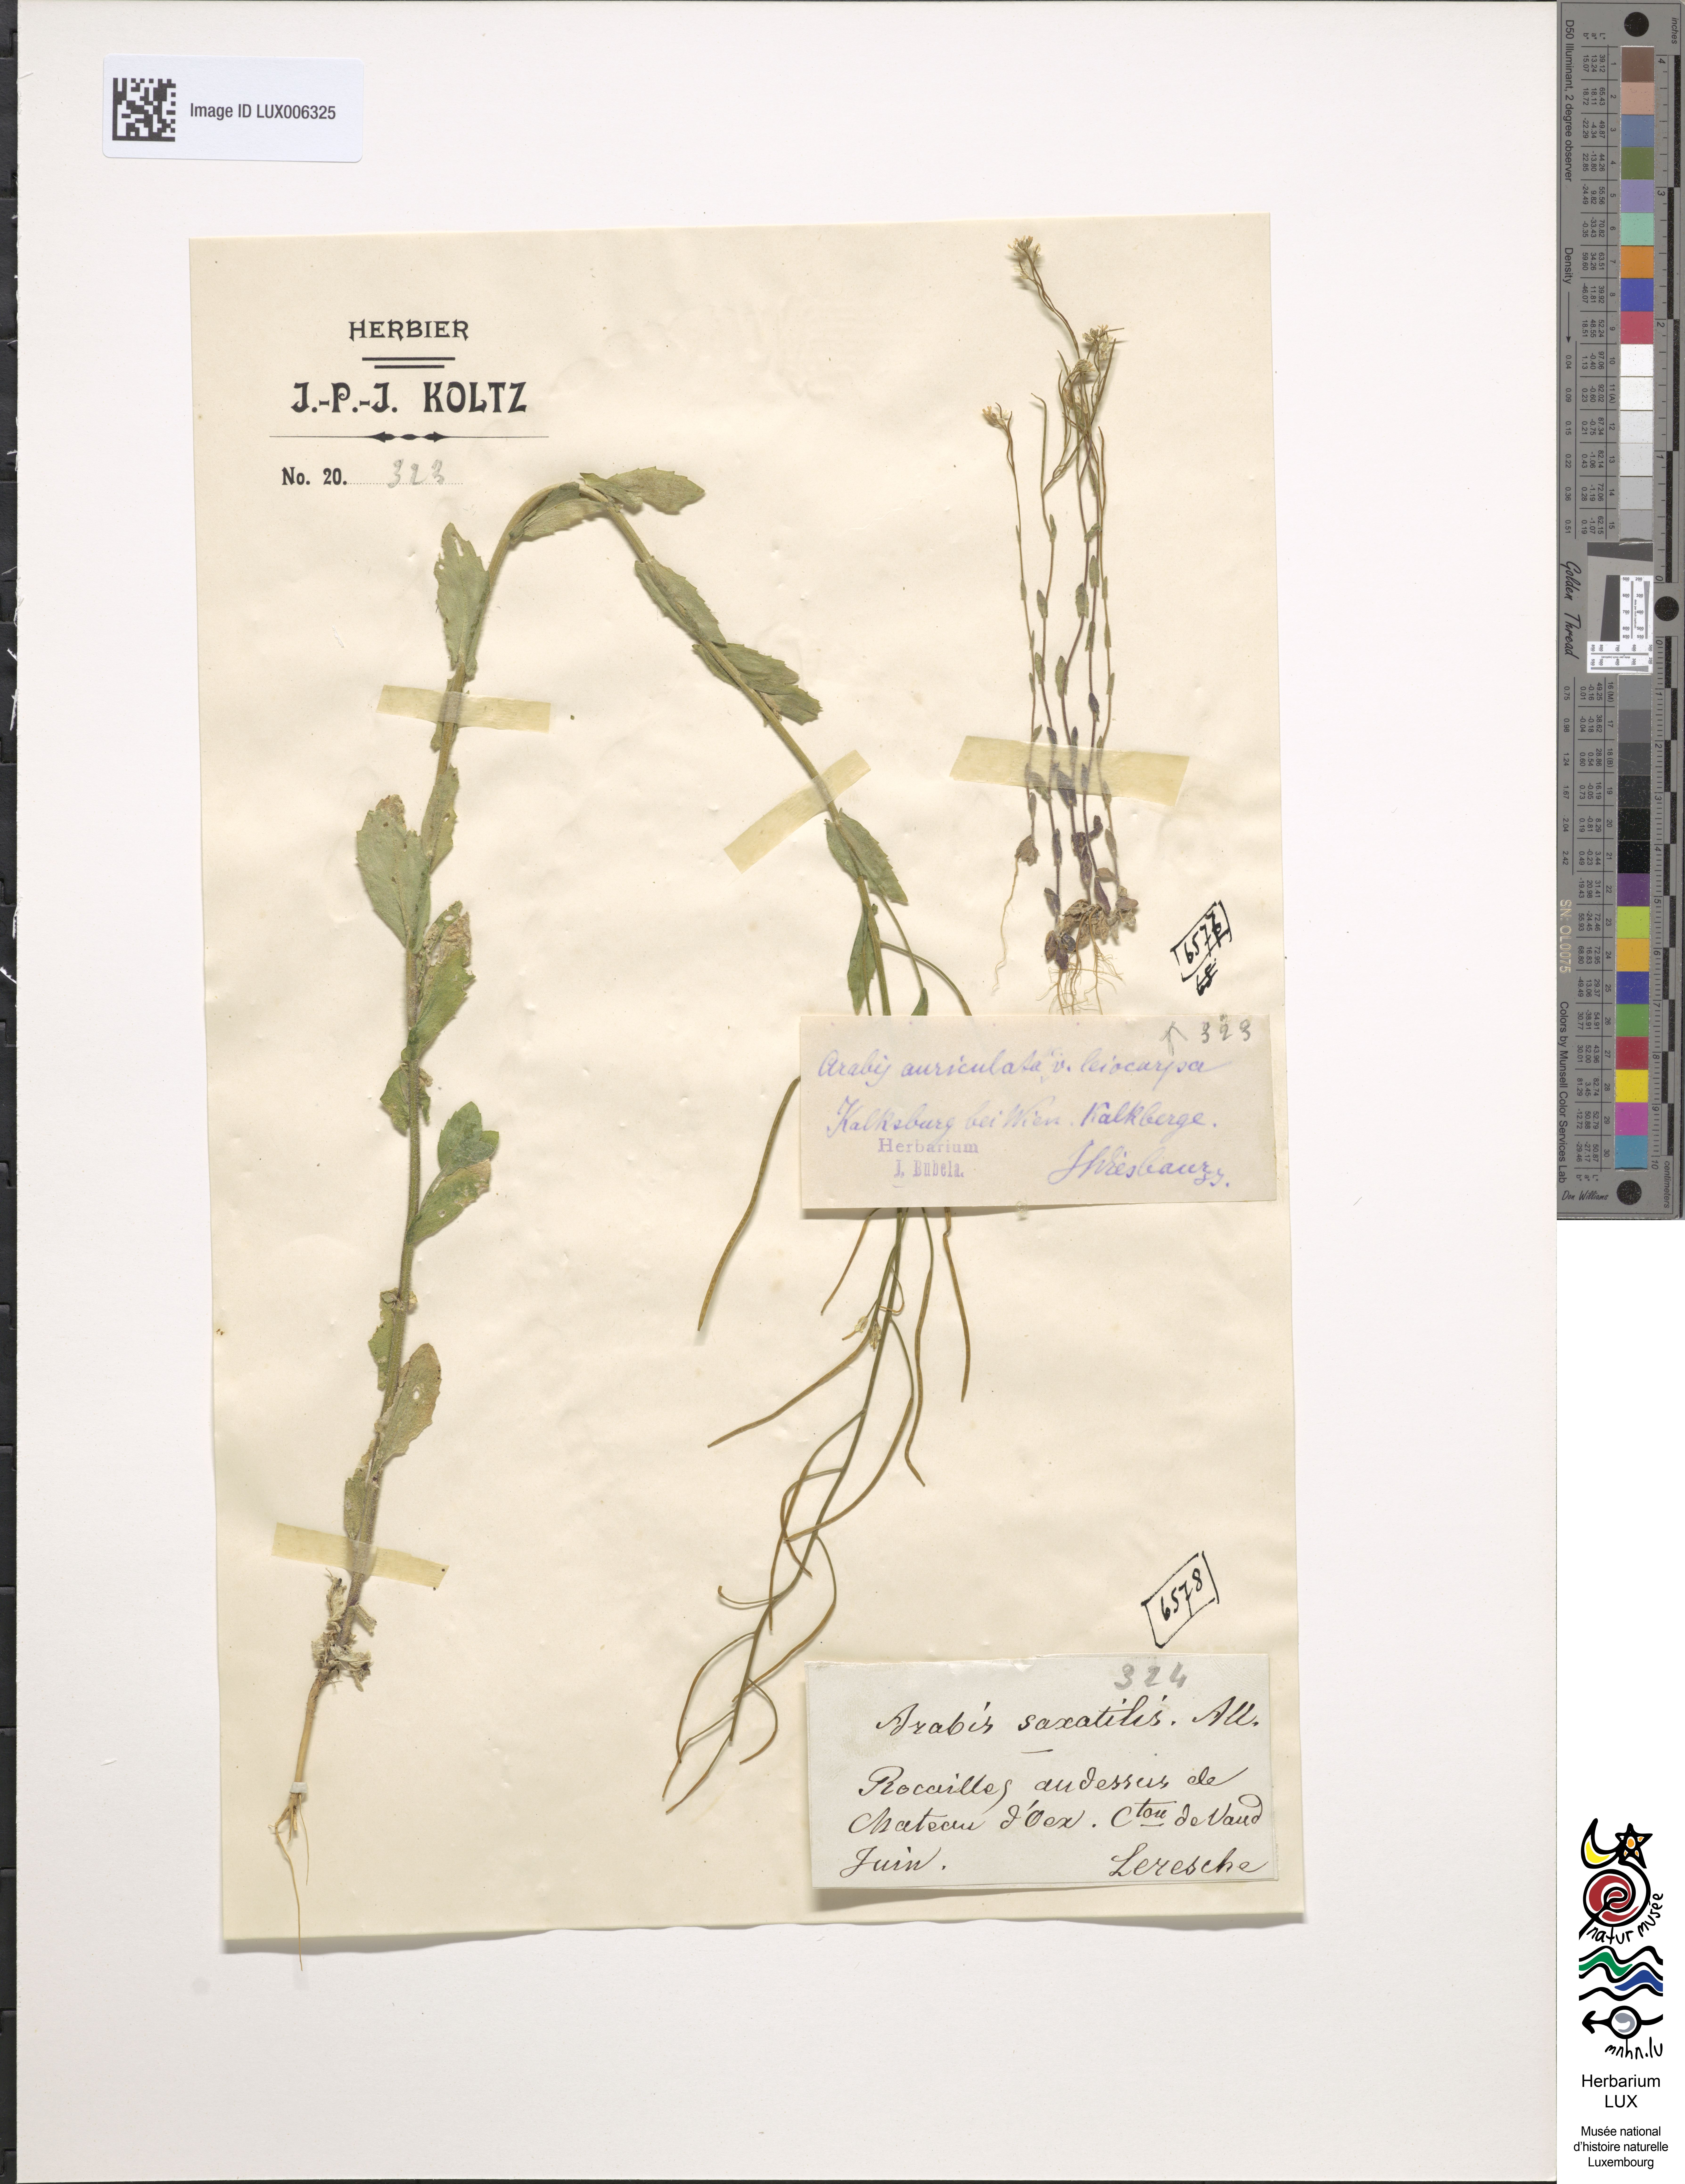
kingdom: Plantae
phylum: Tracheophyta
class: Magnoliopsida
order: Brassicales
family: Brassicaceae
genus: Arabis
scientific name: Arabis auriculata
